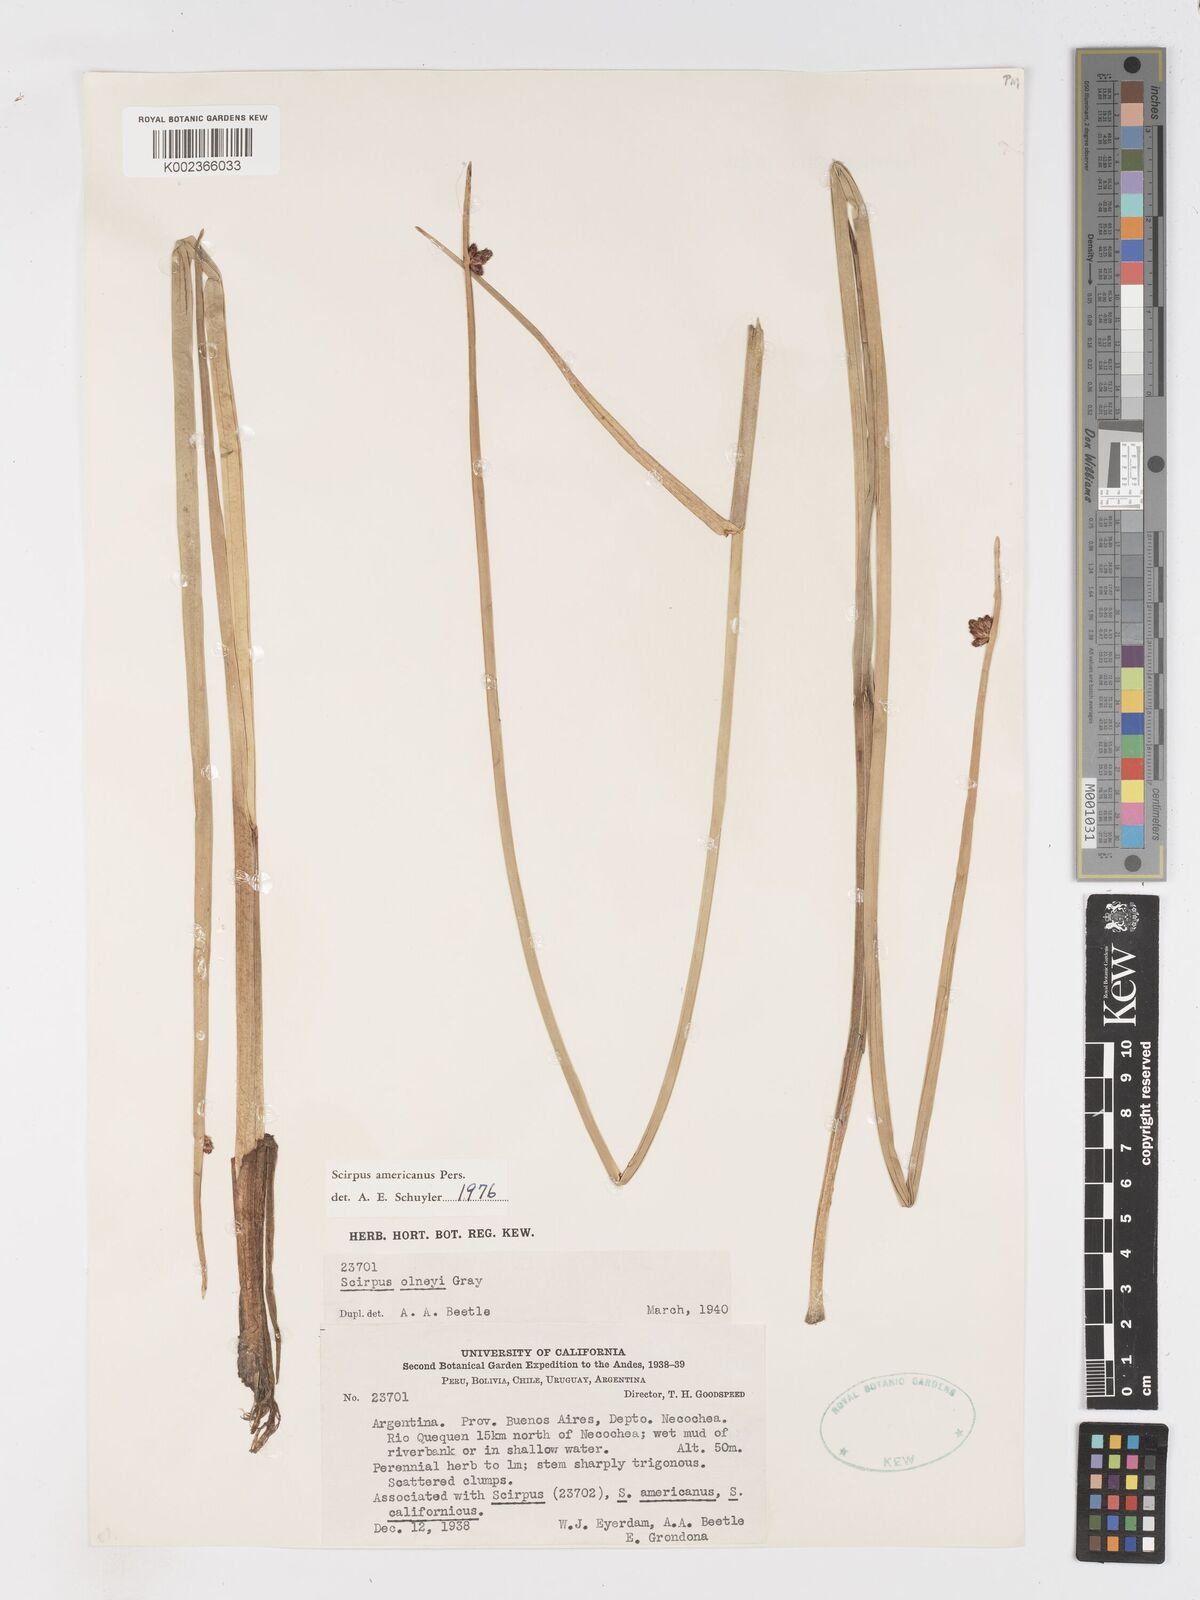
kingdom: Plantae
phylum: Tracheophyta
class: Liliopsida
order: Poales
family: Cyperaceae
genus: Schoenoplectus
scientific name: Schoenoplectus americanus
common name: American three-square bulrush
